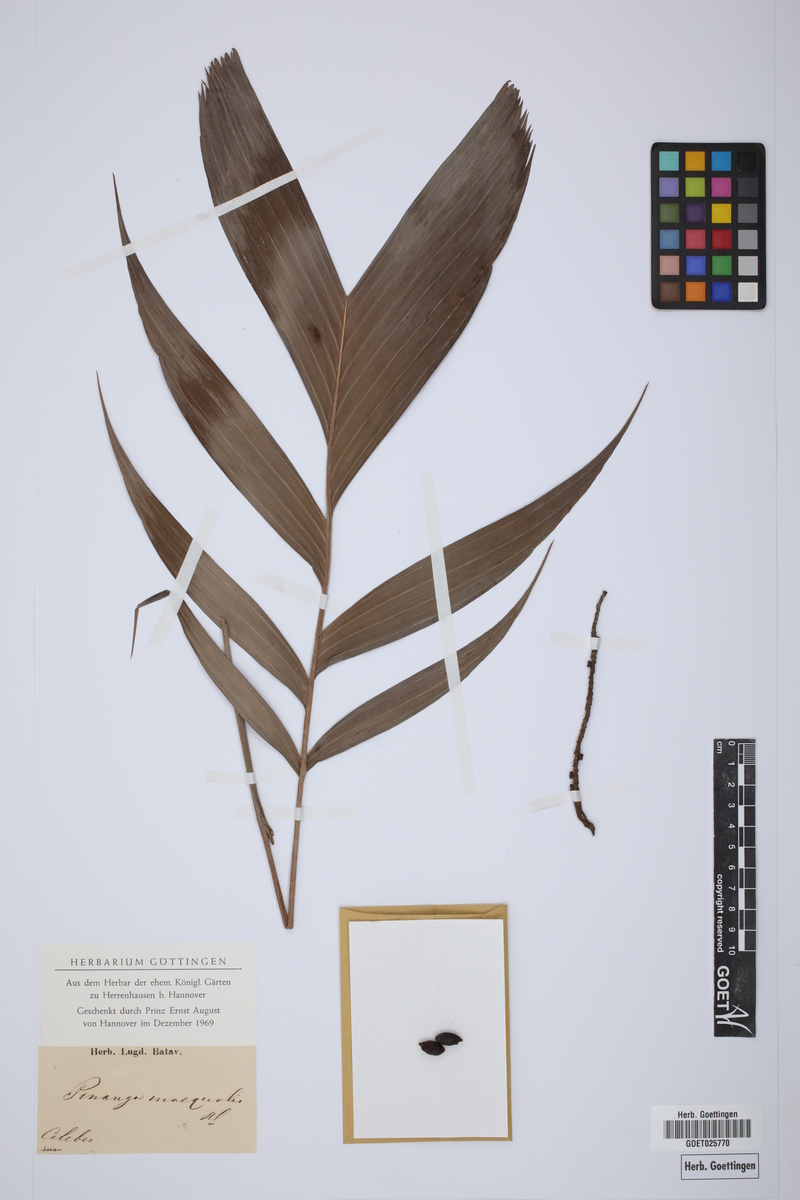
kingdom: Plantae
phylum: Tracheophyta
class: Liliopsida
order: Arecales
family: Arecaceae
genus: Pinanga
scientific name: Pinanga inaequalis
